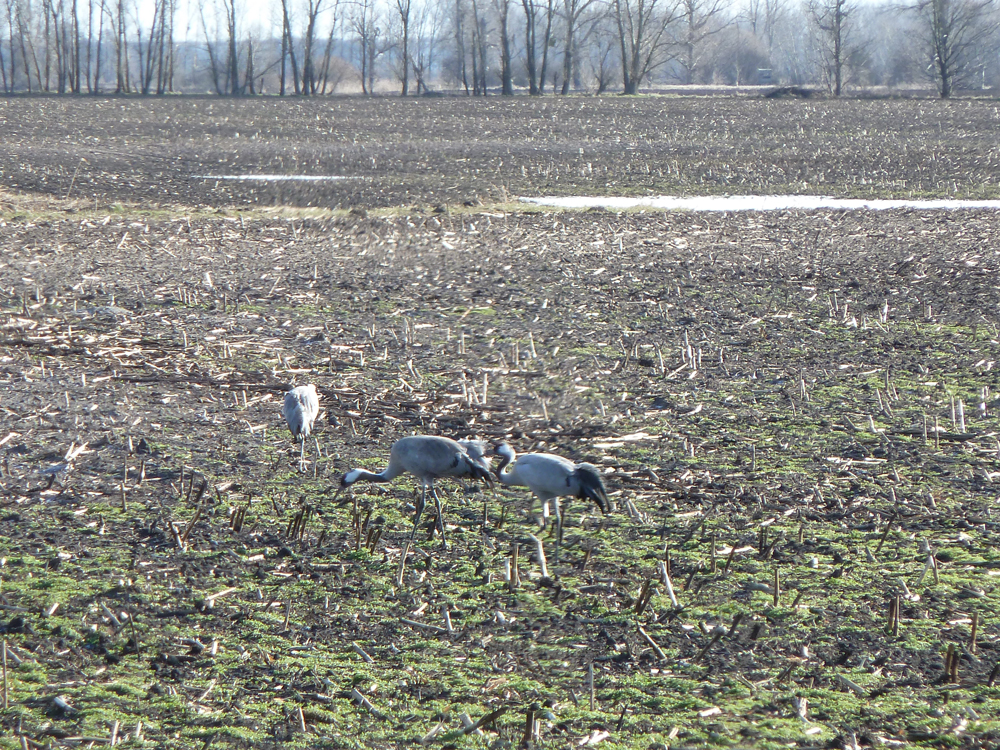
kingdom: Animalia
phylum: Chordata
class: Aves
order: Gruiformes
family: Gruidae
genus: Grus
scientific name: Grus grus
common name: Common crane
